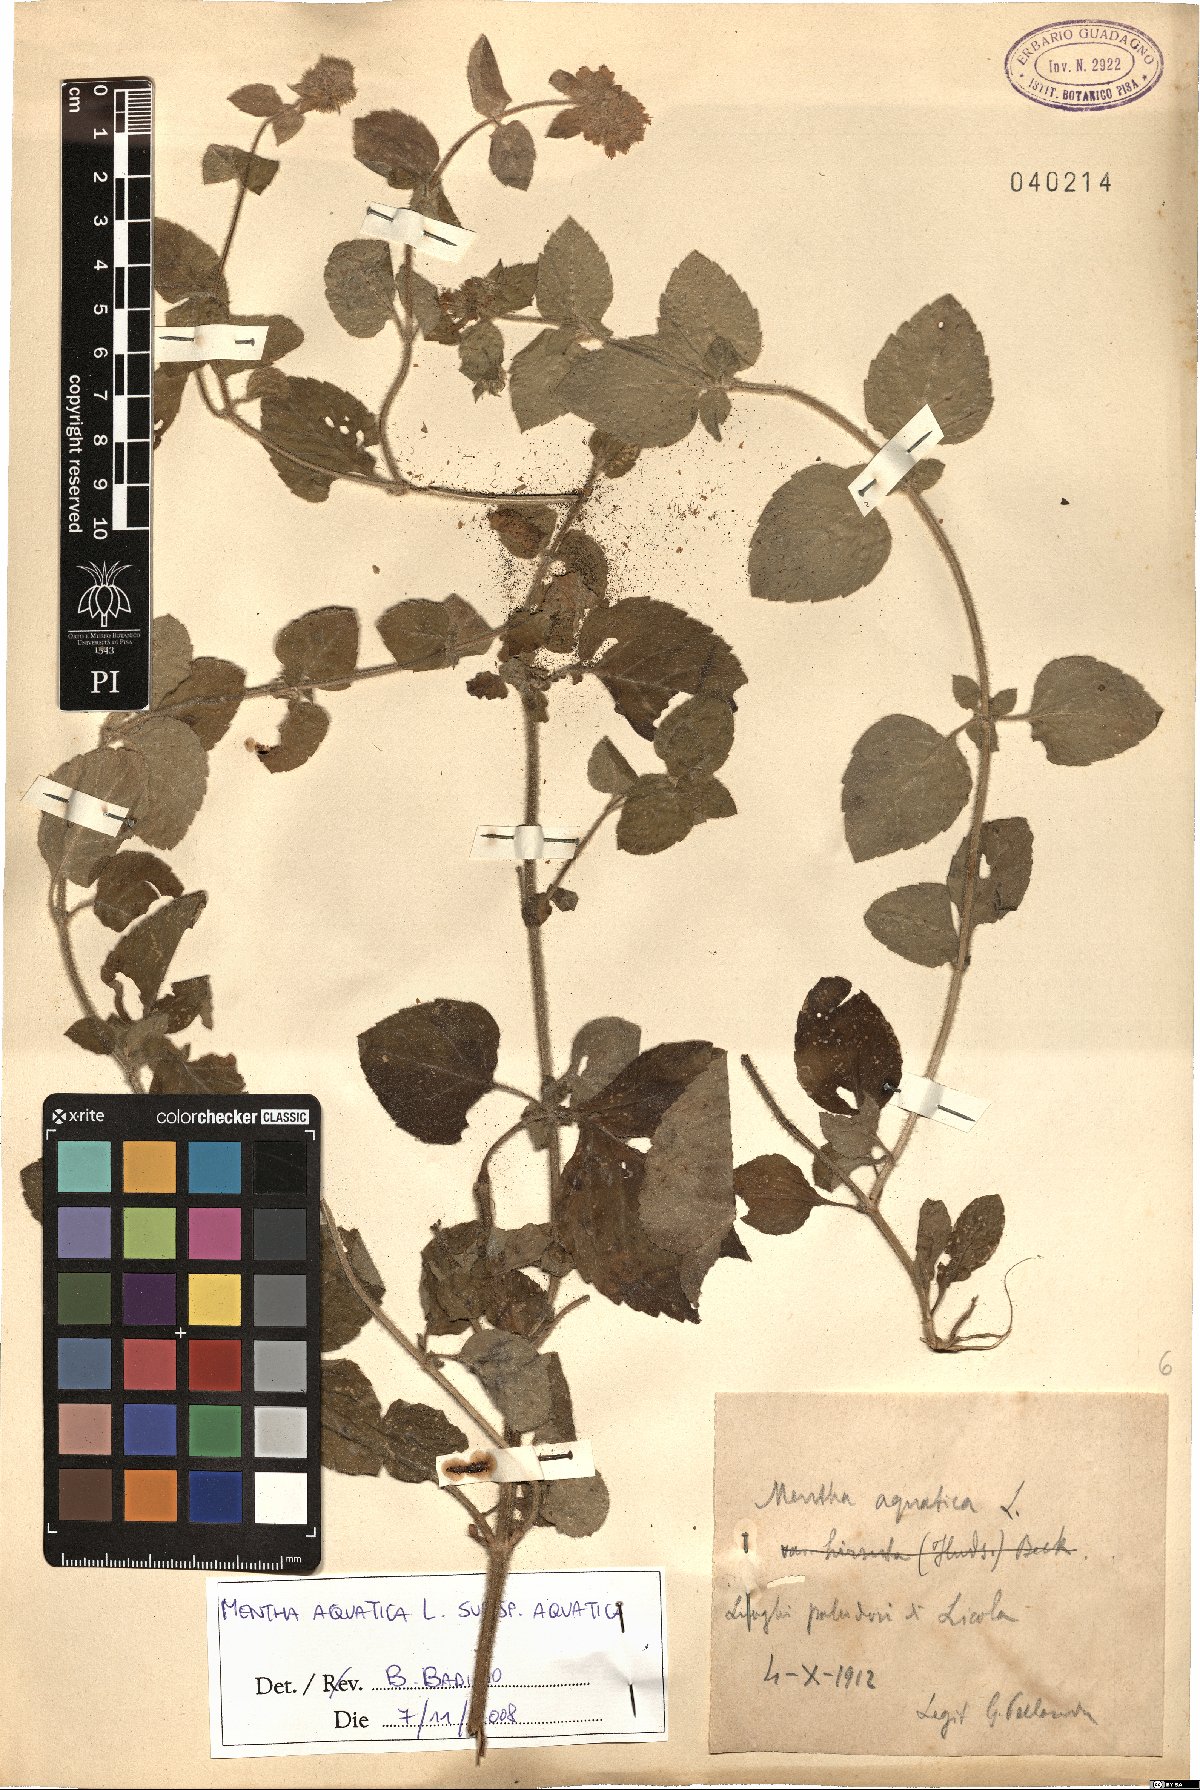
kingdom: Plantae
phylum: Tracheophyta
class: Magnoliopsida
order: Lamiales
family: Lamiaceae
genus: Mentha
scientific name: Mentha aquatica
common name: Water mint
